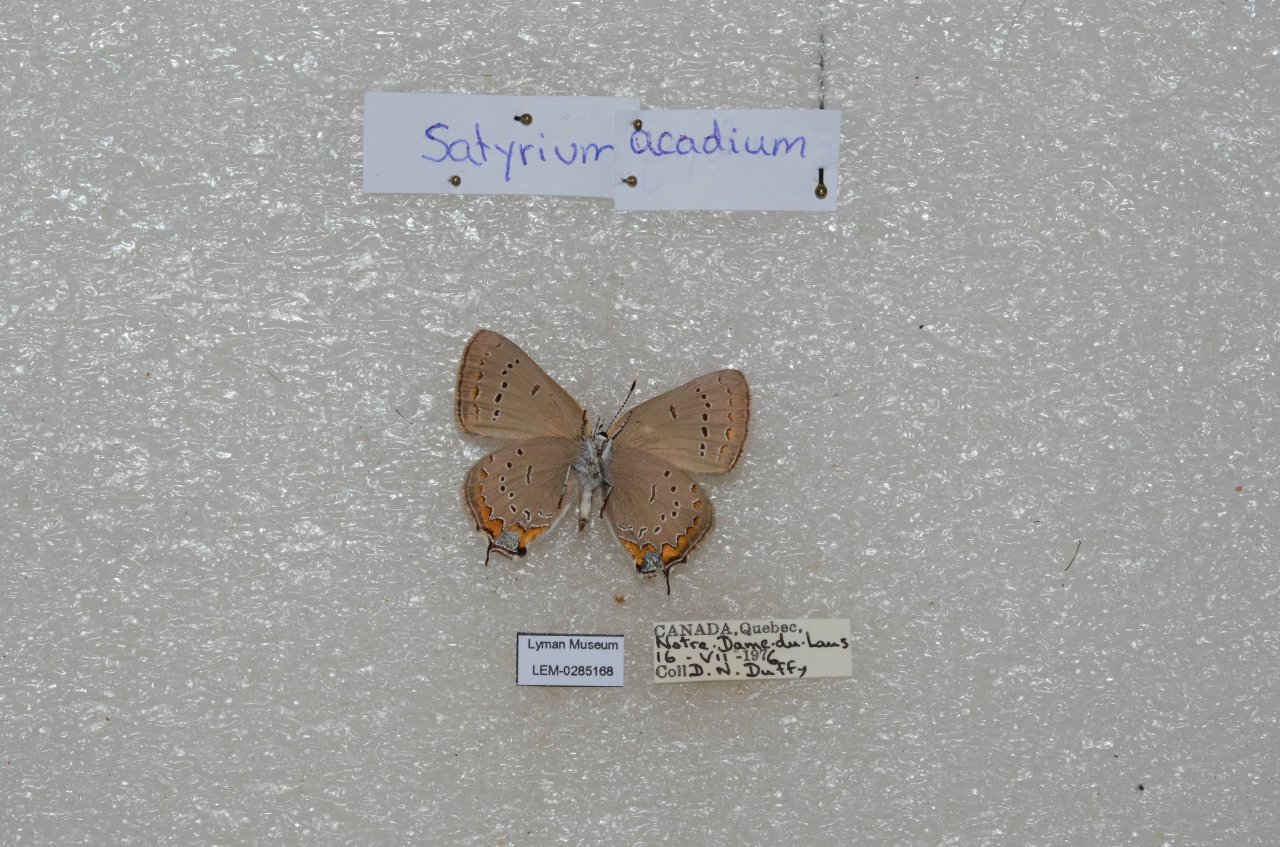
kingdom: Animalia
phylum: Arthropoda
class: Insecta
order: Lepidoptera
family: Lycaenidae
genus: Strymon
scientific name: Strymon acadica
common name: Acadian Hairstreak
